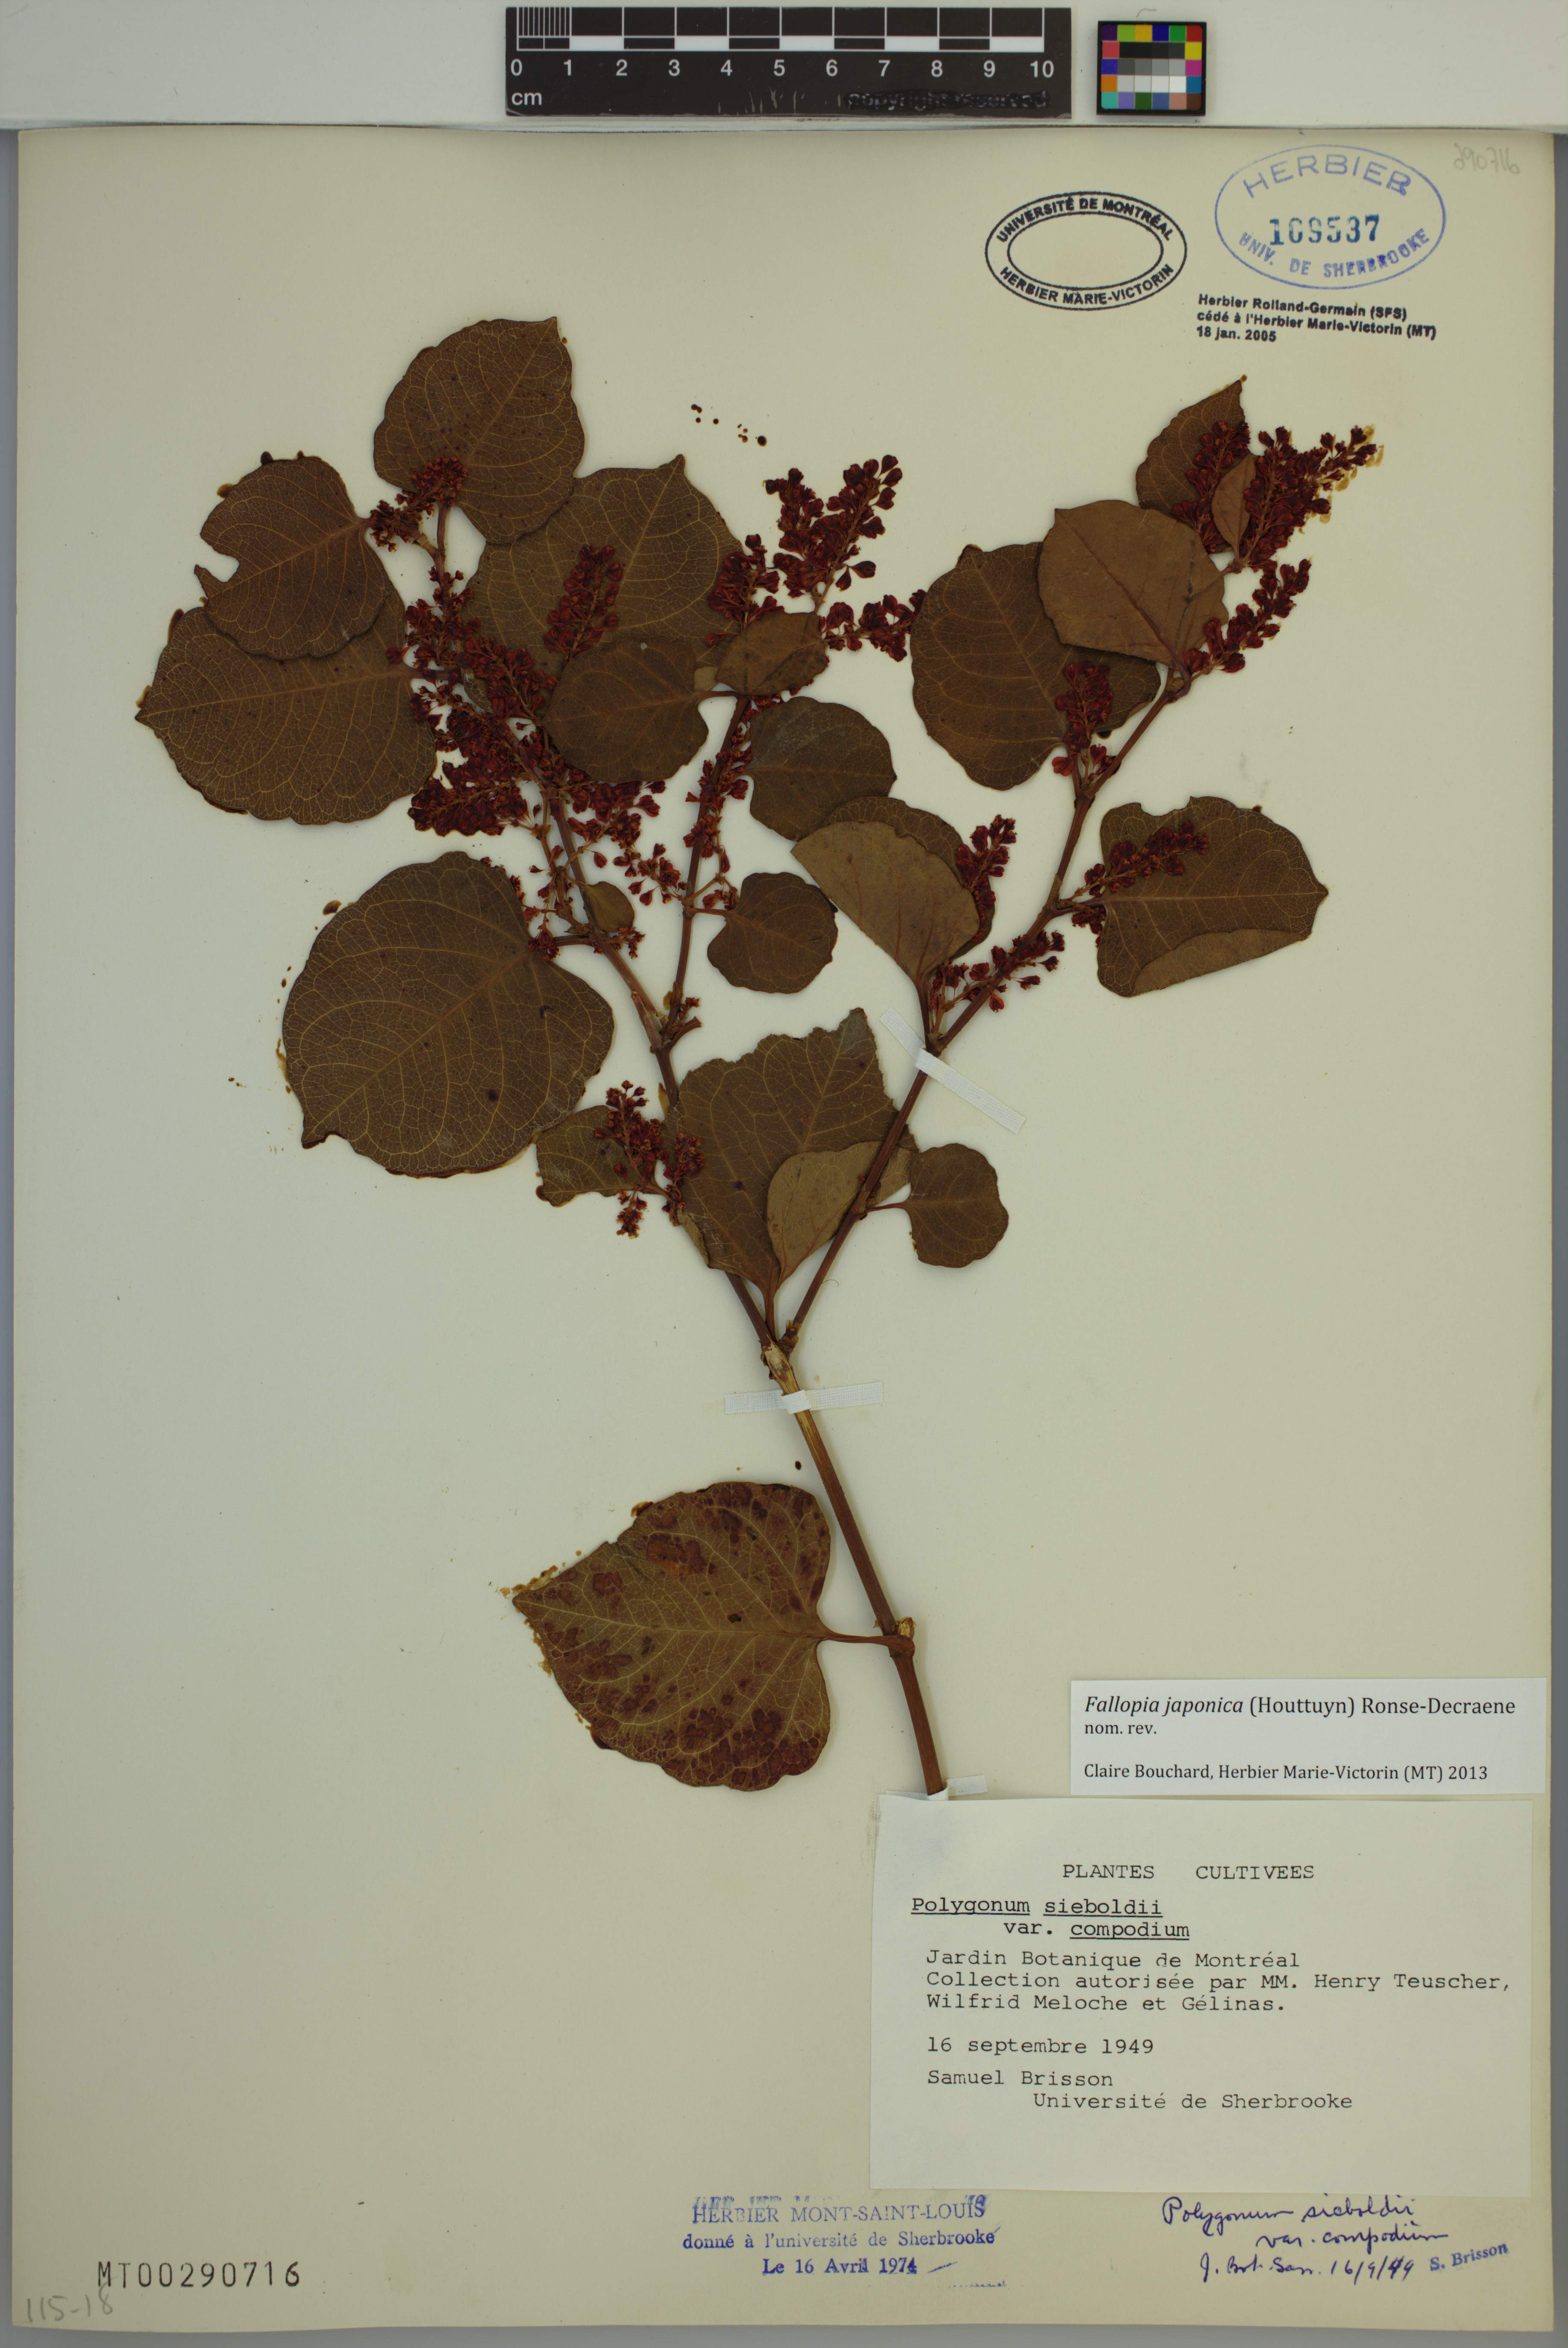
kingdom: Plantae
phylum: Tracheophyta
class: Magnoliopsida
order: Caryophyllales
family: Polygonaceae
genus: Reynoutria
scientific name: Reynoutria japonica
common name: Japanese knotweed
